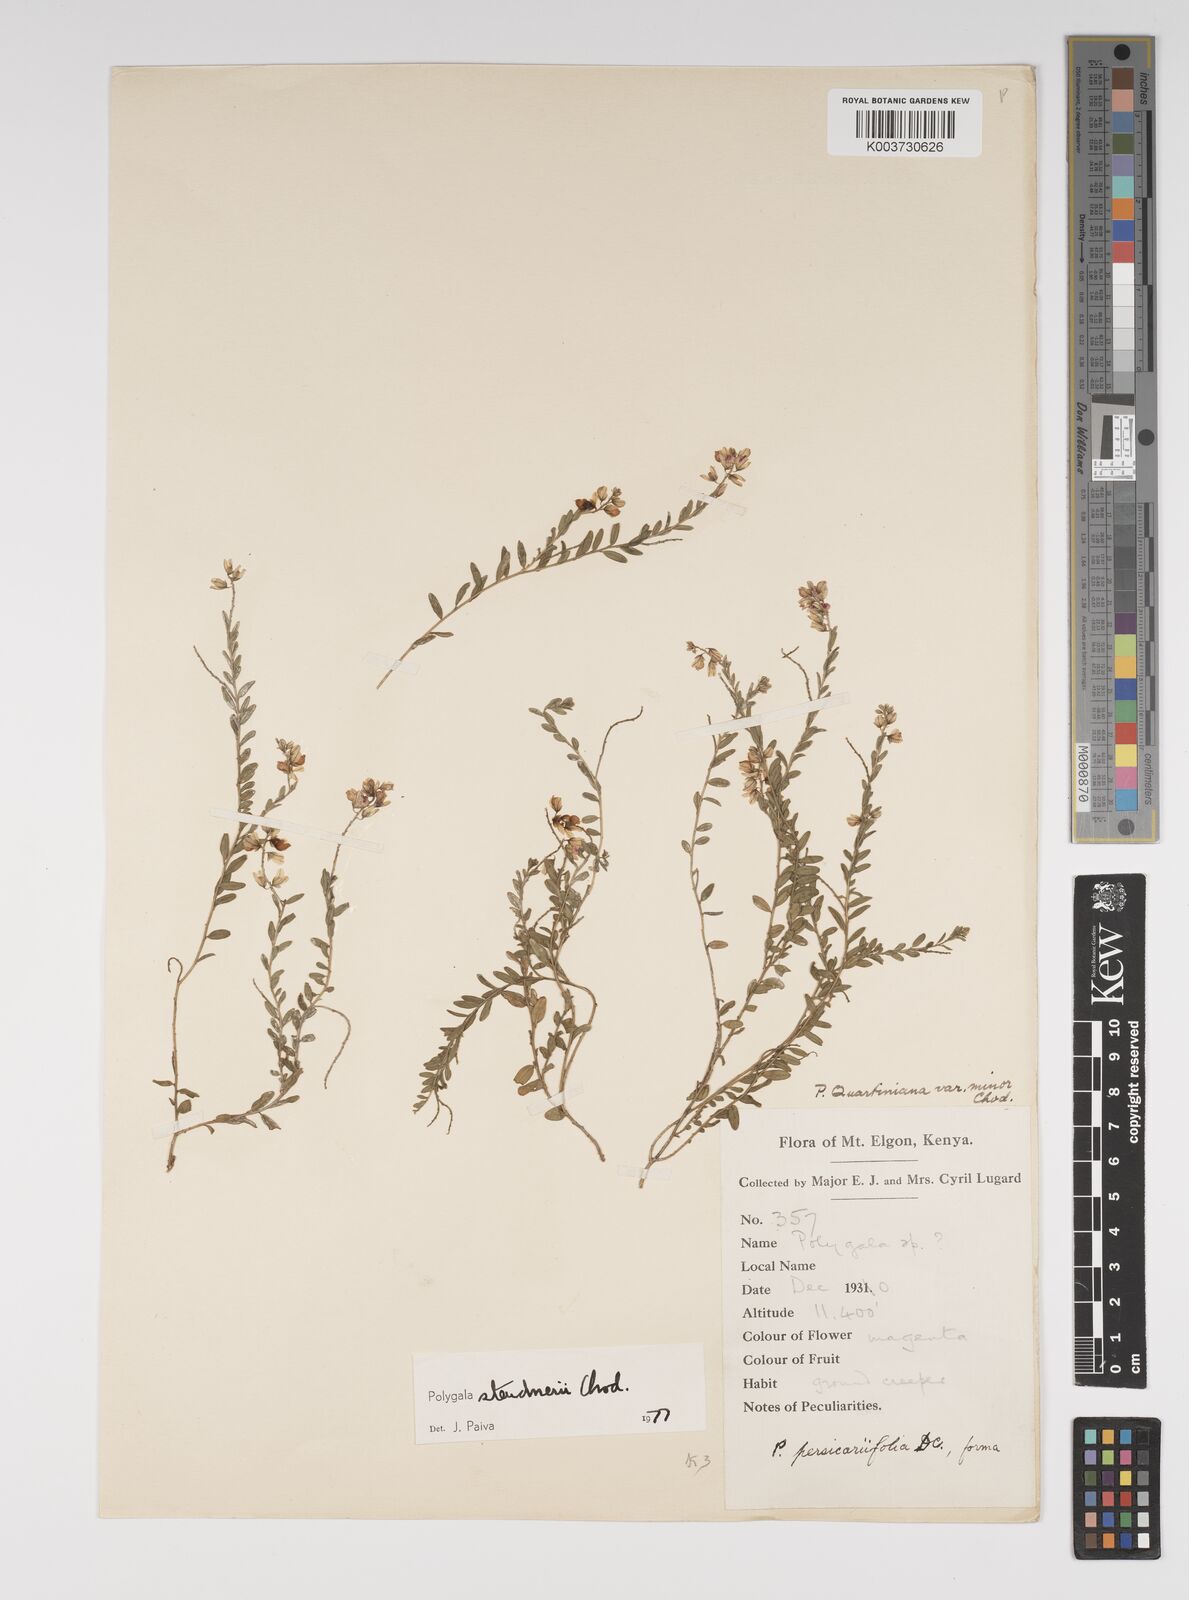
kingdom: Plantae
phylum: Tracheophyta
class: Magnoliopsida
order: Fabales
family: Polygalaceae
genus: Polygala
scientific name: Polygala steudneri
